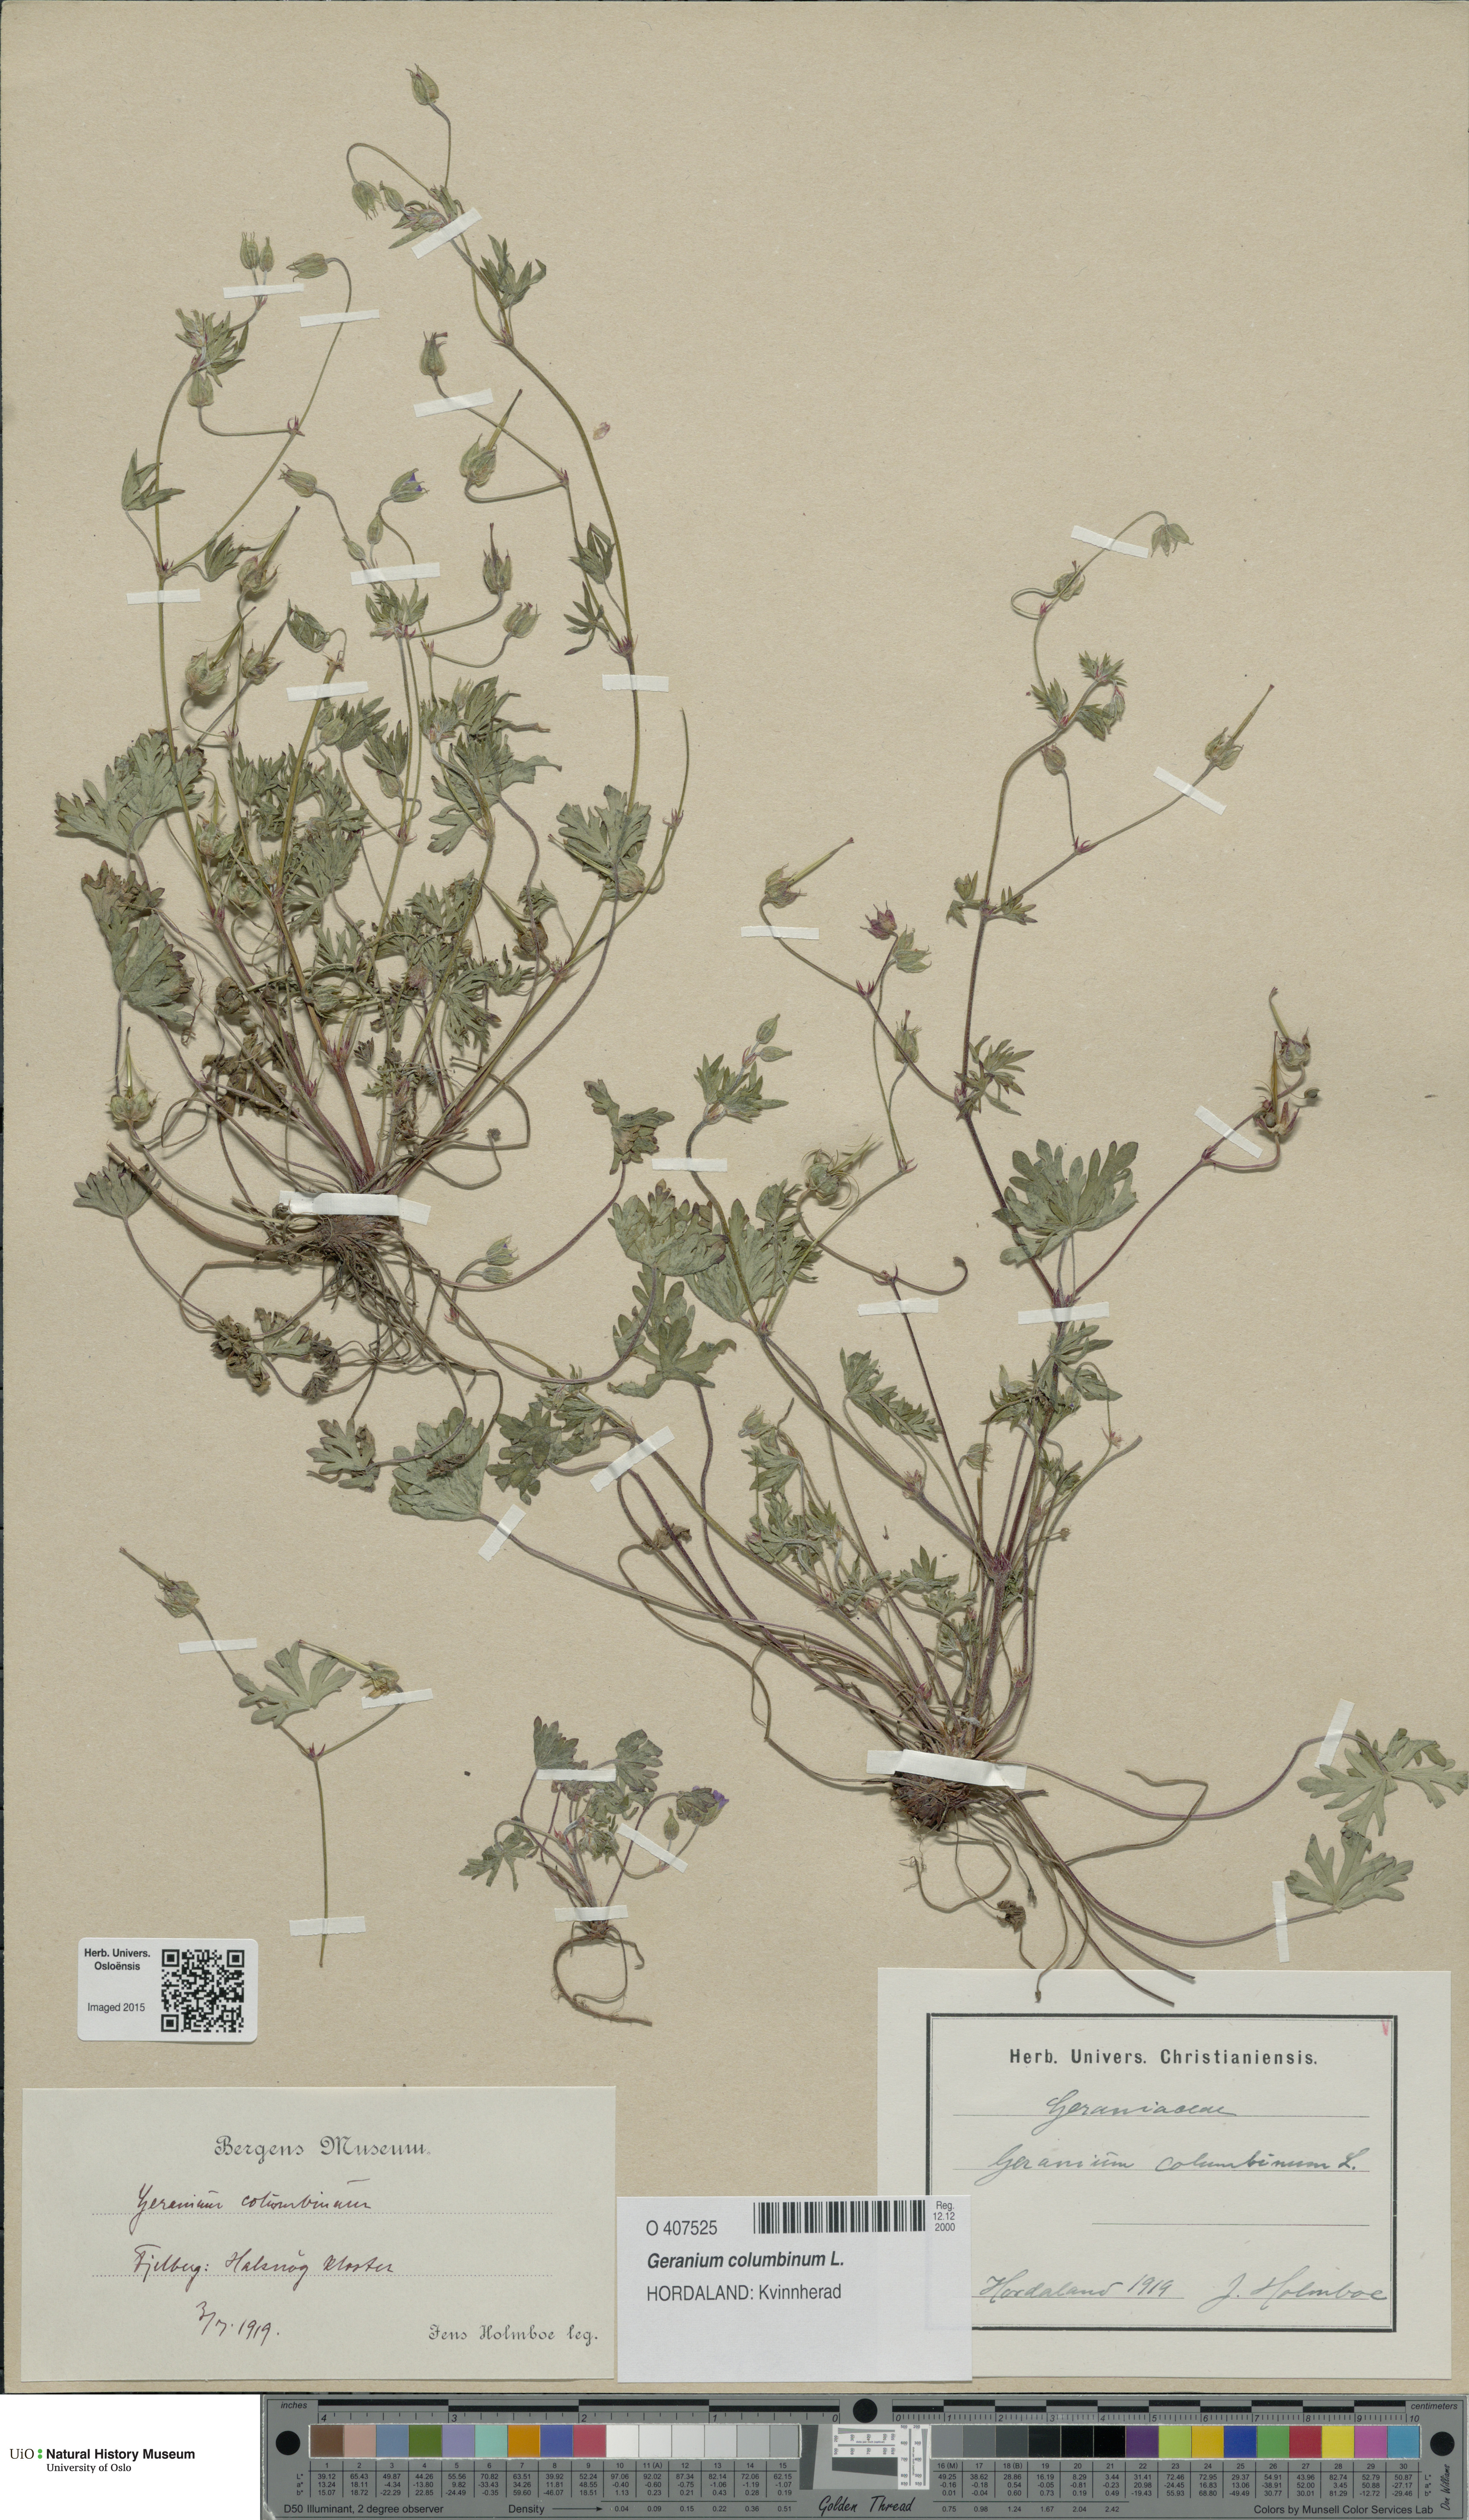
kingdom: Plantae
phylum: Tracheophyta
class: Magnoliopsida
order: Geraniales
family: Geraniaceae
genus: Geranium
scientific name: Geranium columbinum
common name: Long-stalked crane's-bill
